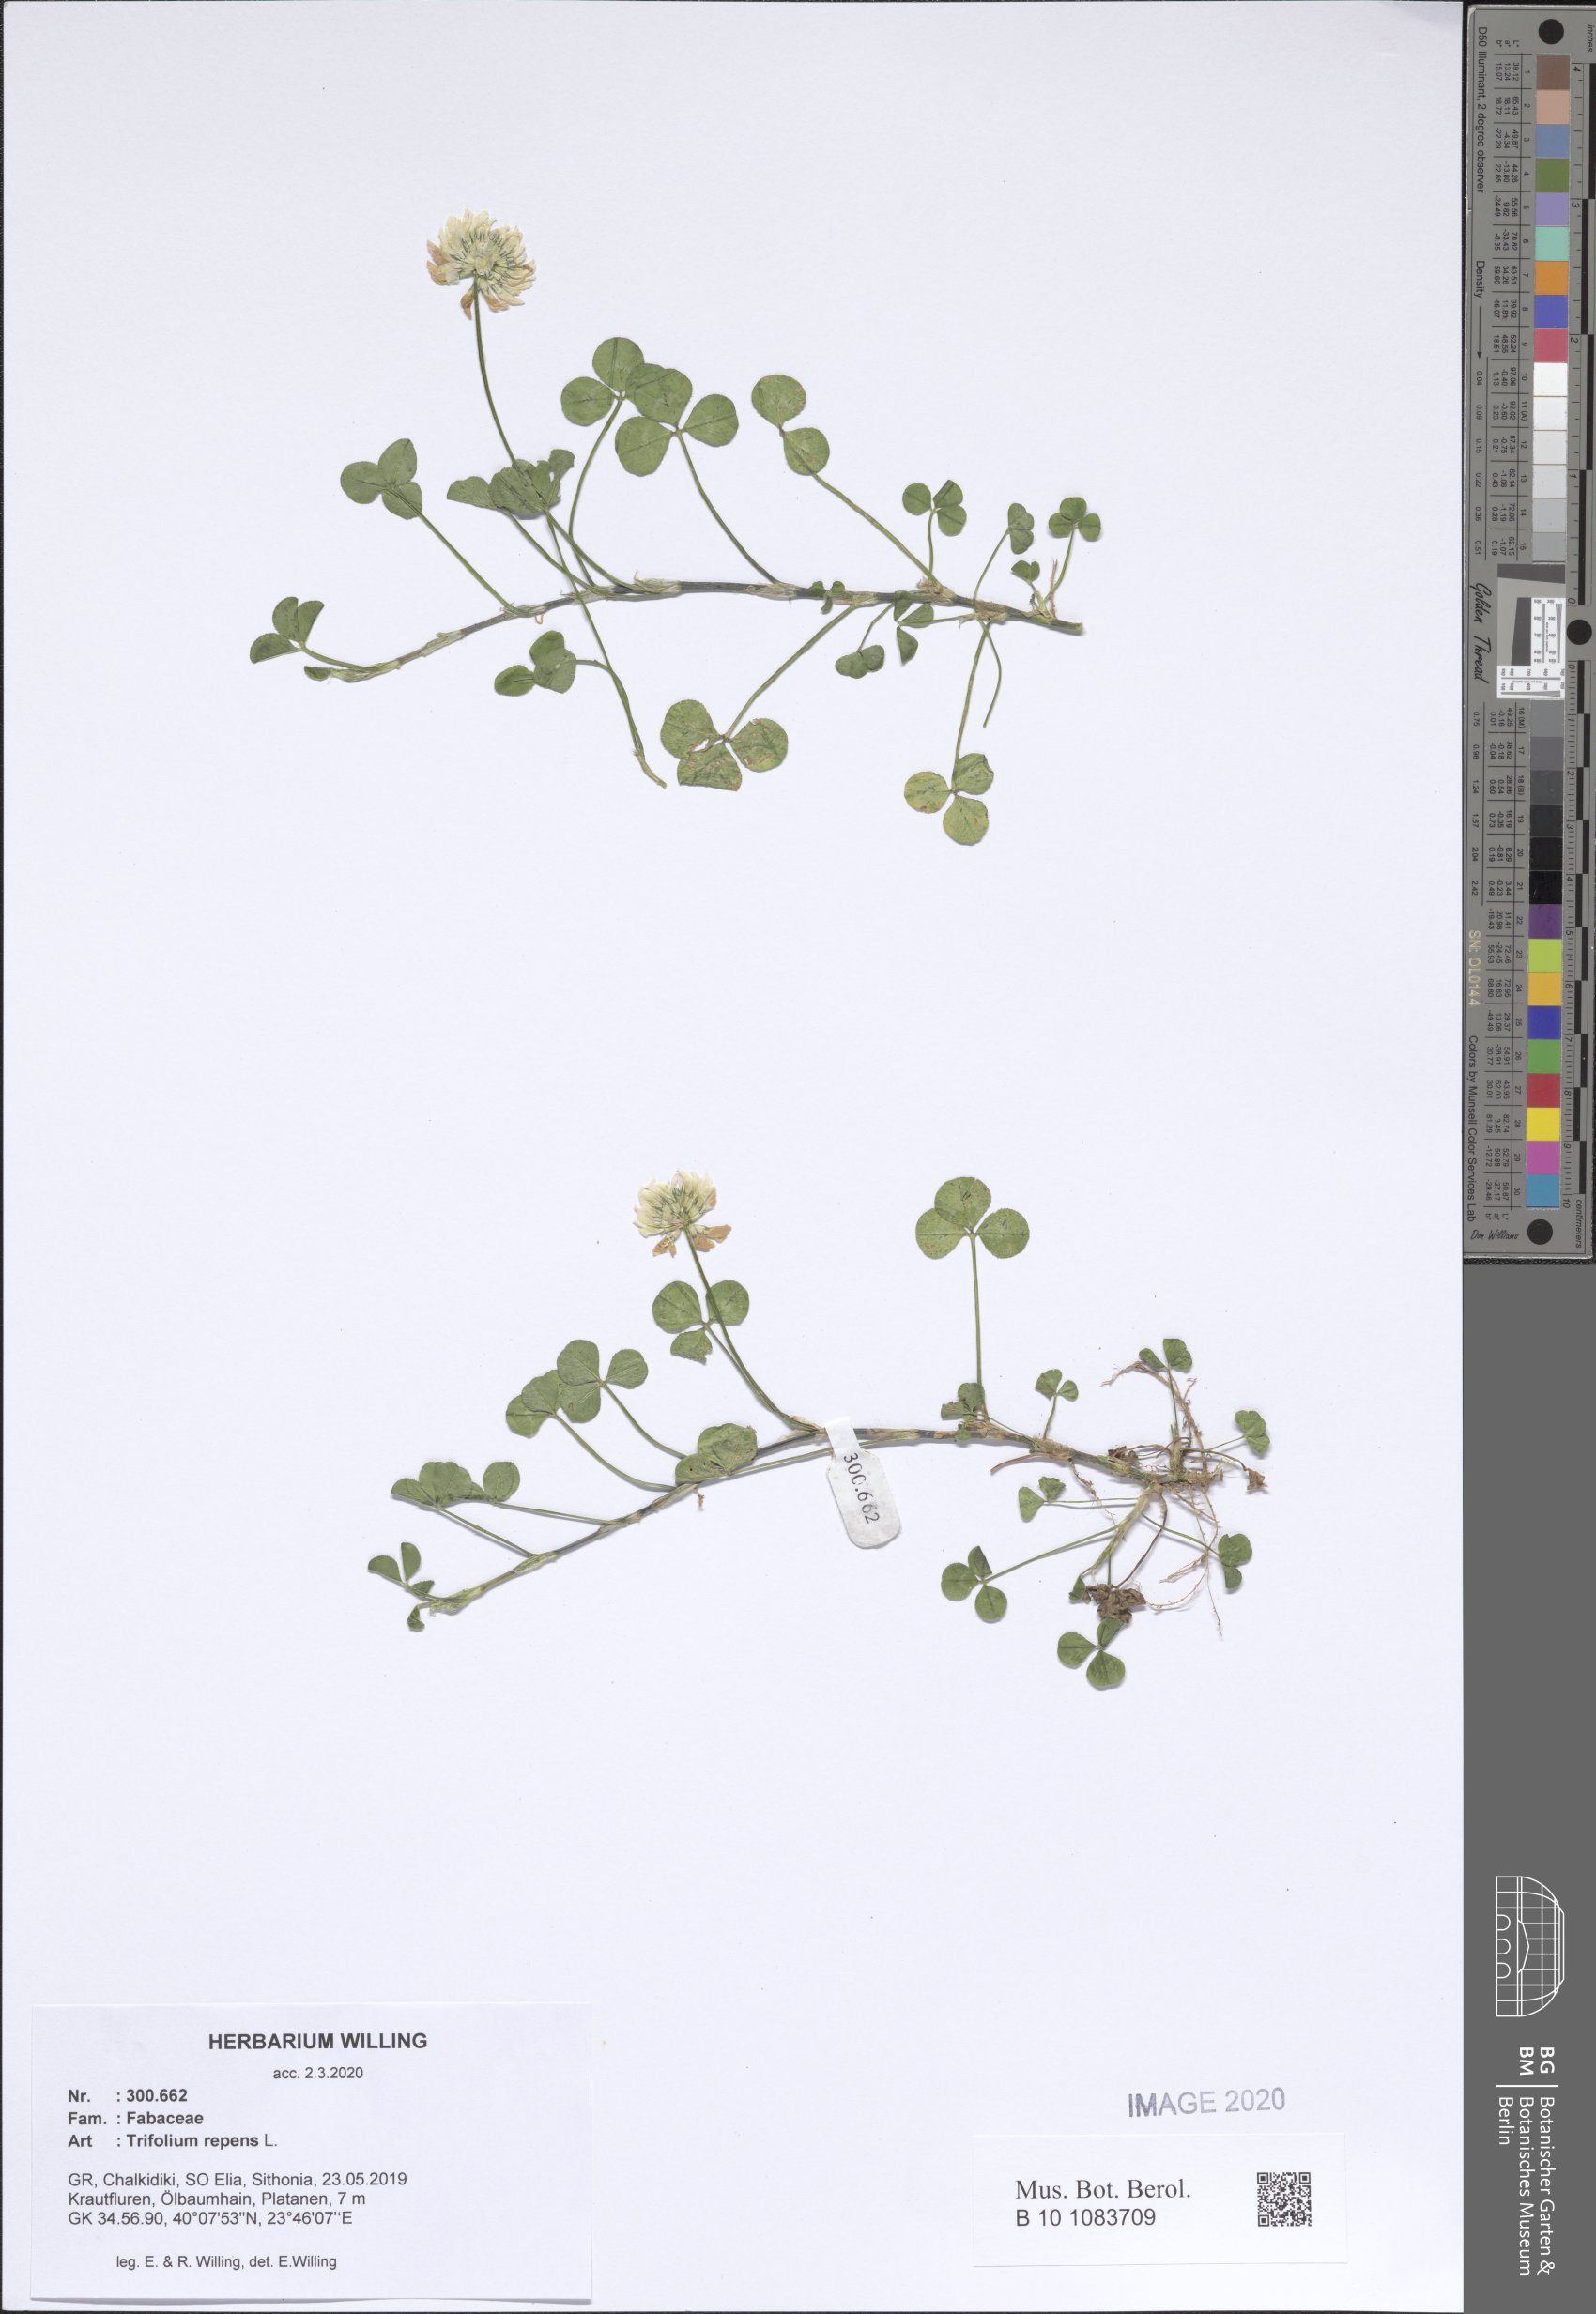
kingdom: Plantae
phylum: Tracheophyta
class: Magnoliopsida
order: Fabales
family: Fabaceae
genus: Trifolium
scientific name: Trifolium repens
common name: White clover
